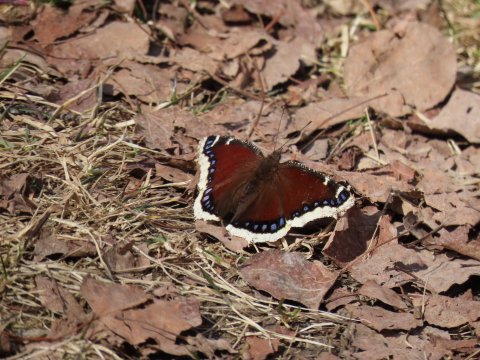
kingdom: Animalia
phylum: Arthropoda
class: Insecta
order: Lepidoptera
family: Nymphalidae
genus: Nymphalis
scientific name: Nymphalis antiopa
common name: Mourning Cloak
